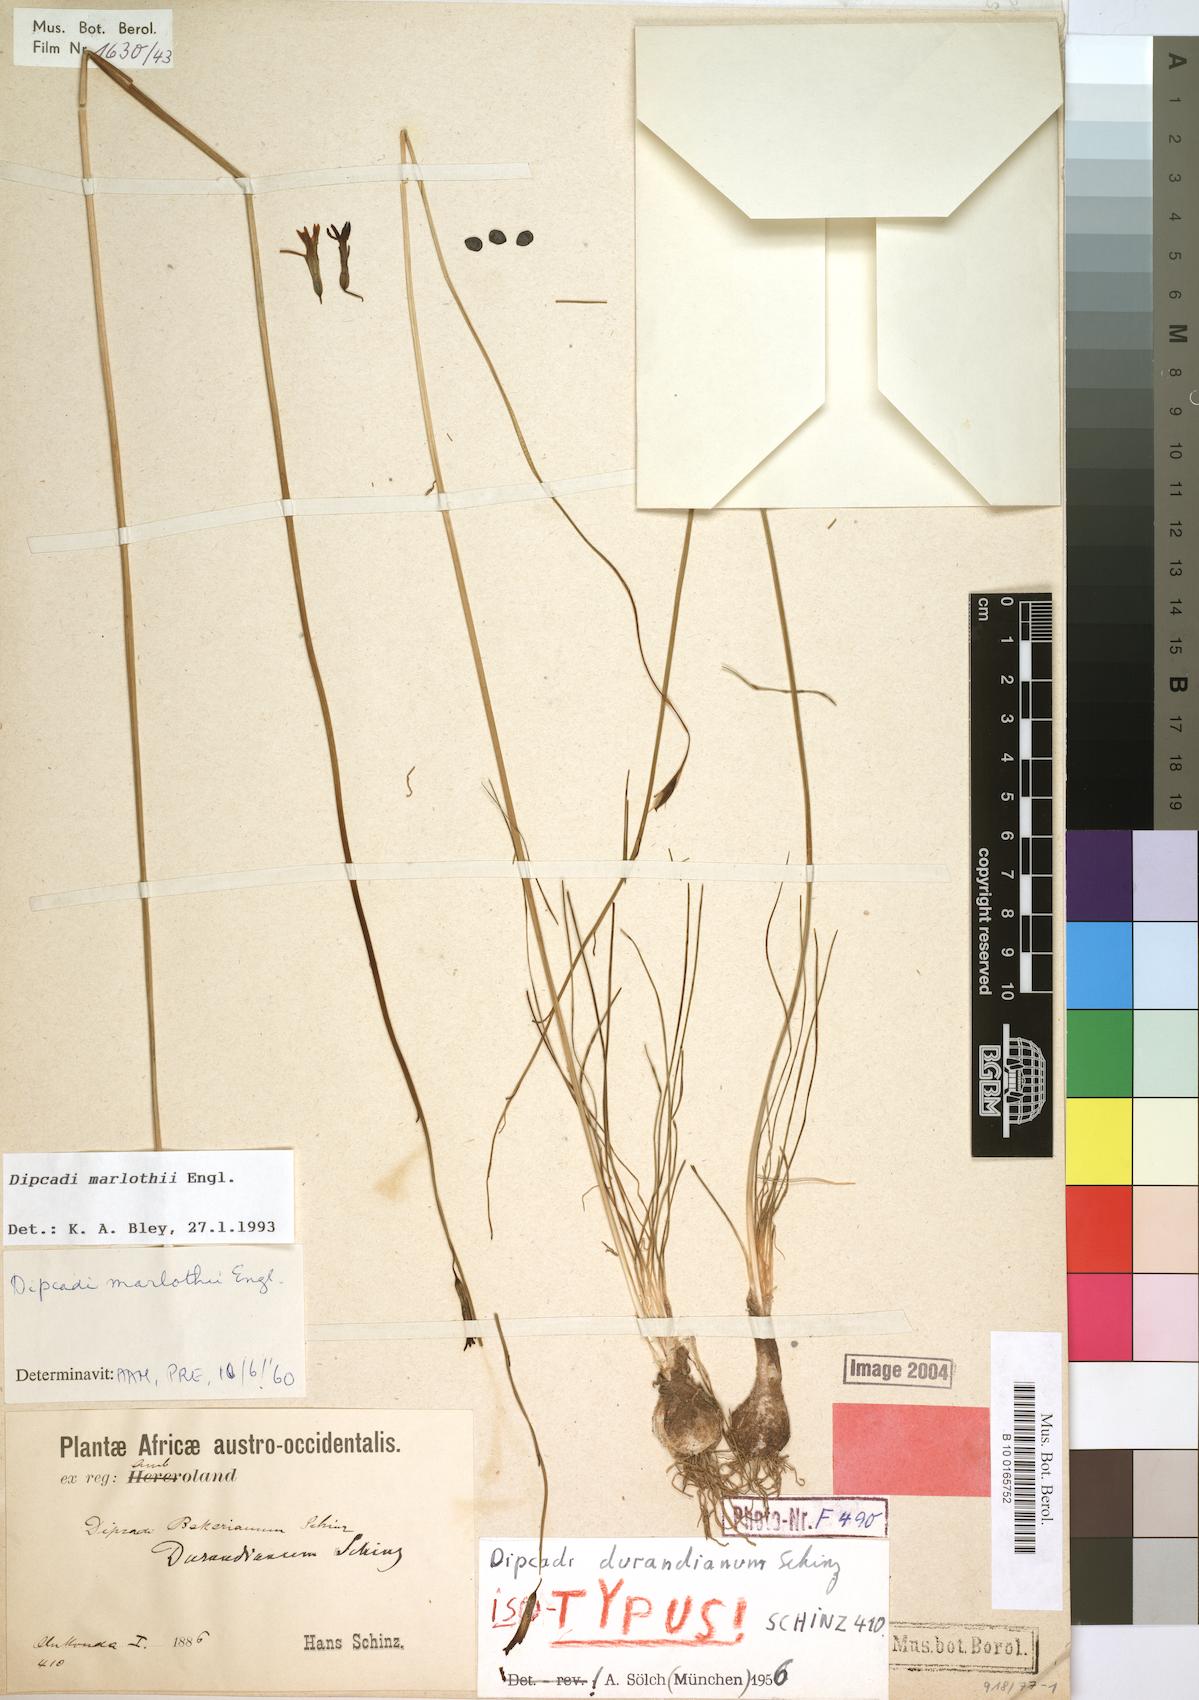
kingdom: Plantae
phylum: Tracheophyta
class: Liliopsida
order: Asparagales
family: Asparagaceae
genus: Dipcadi
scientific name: Dipcadi marlothii
